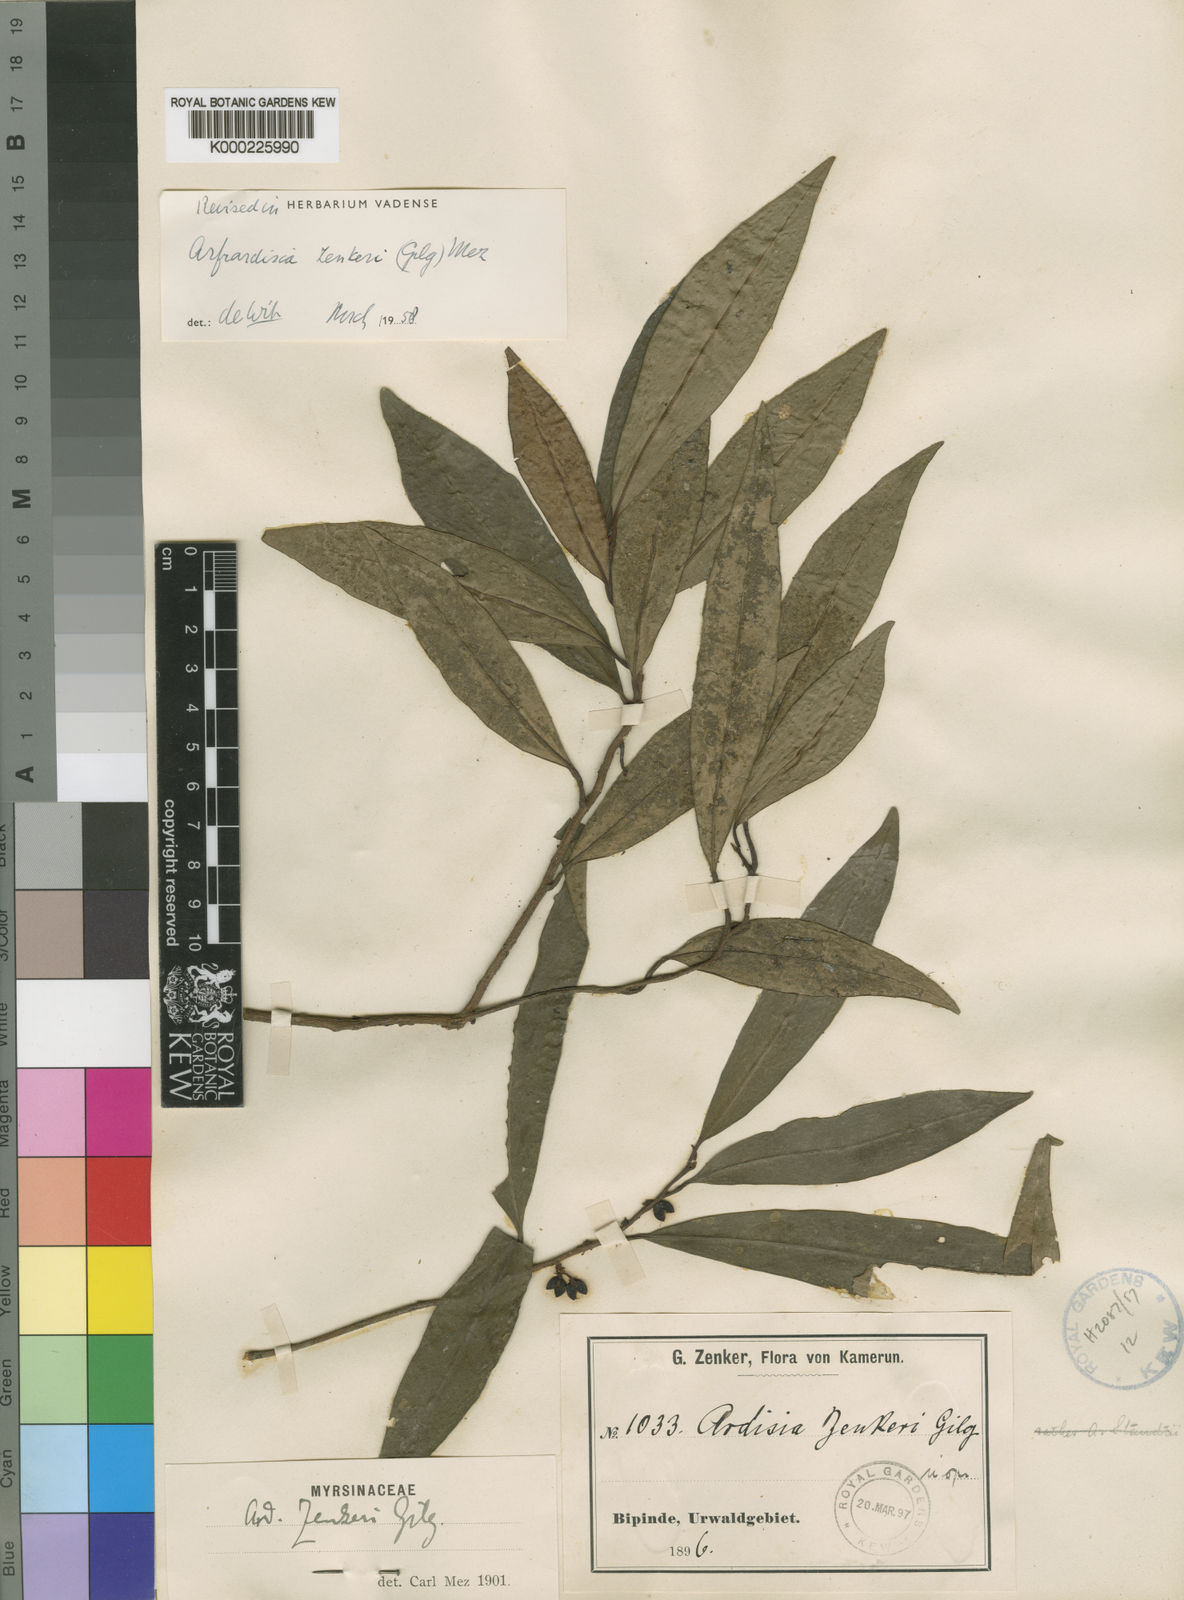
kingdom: Plantae
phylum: Tracheophyta
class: Magnoliopsida
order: Ericales
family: Primulaceae
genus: Ardisia
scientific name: Ardisia zenkeri
